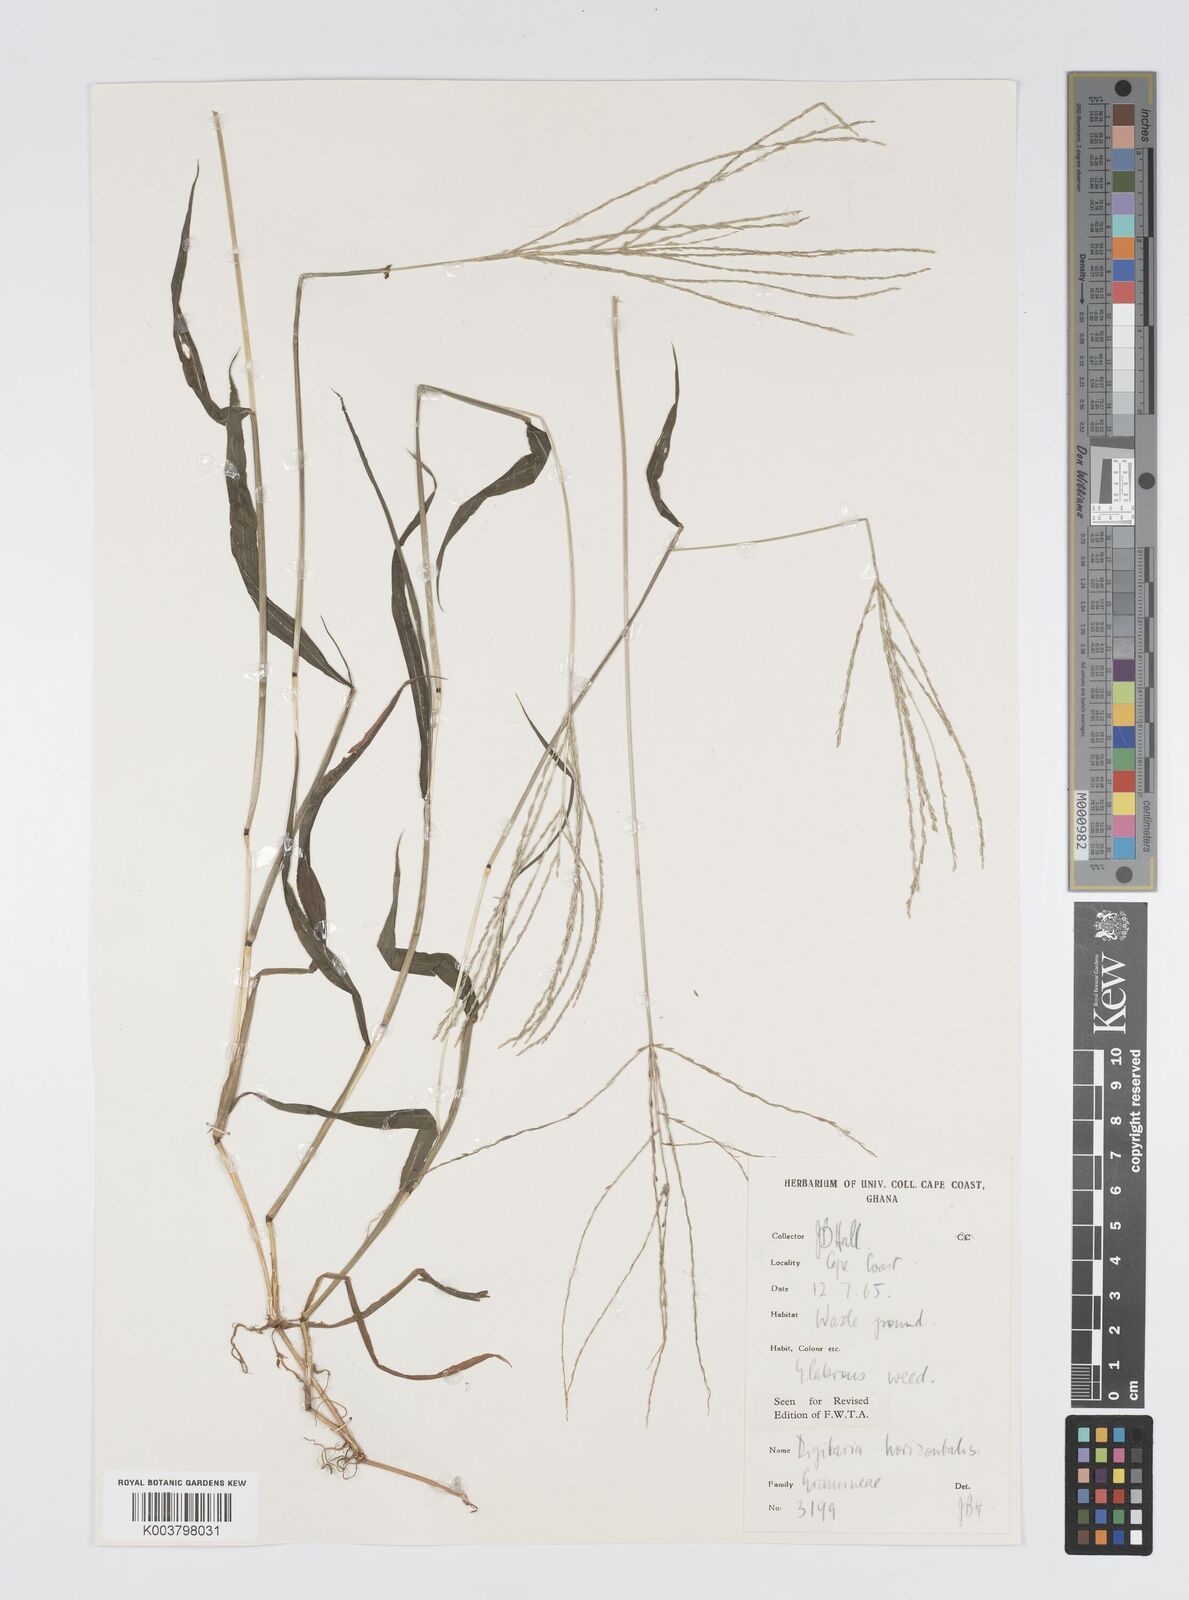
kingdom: Plantae
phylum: Tracheophyta
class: Liliopsida
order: Poales
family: Poaceae
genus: Digitaria
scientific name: Digitaria horizontalis
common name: Jamaican crabgrass
